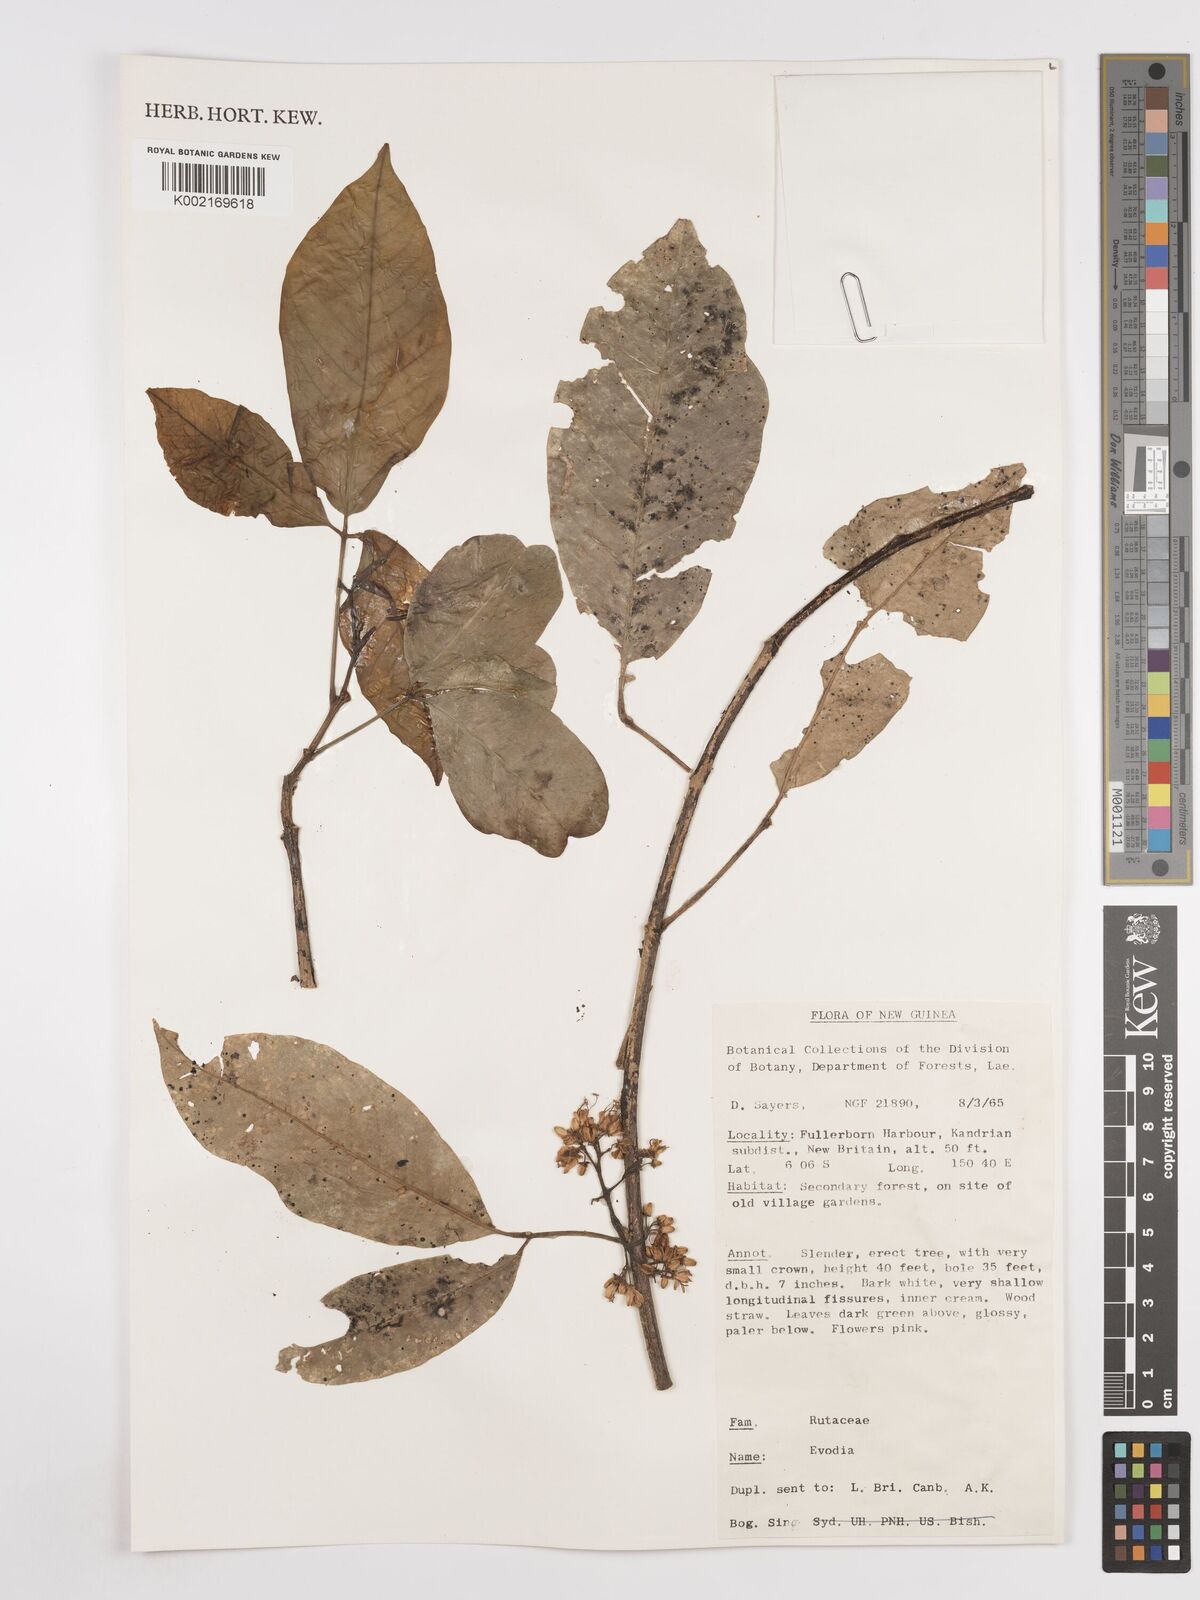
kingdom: Plantae
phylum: Tracheophyta
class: Magnoliopsida
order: Sapindales
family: Rutaceae
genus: Euodia
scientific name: Euodia
